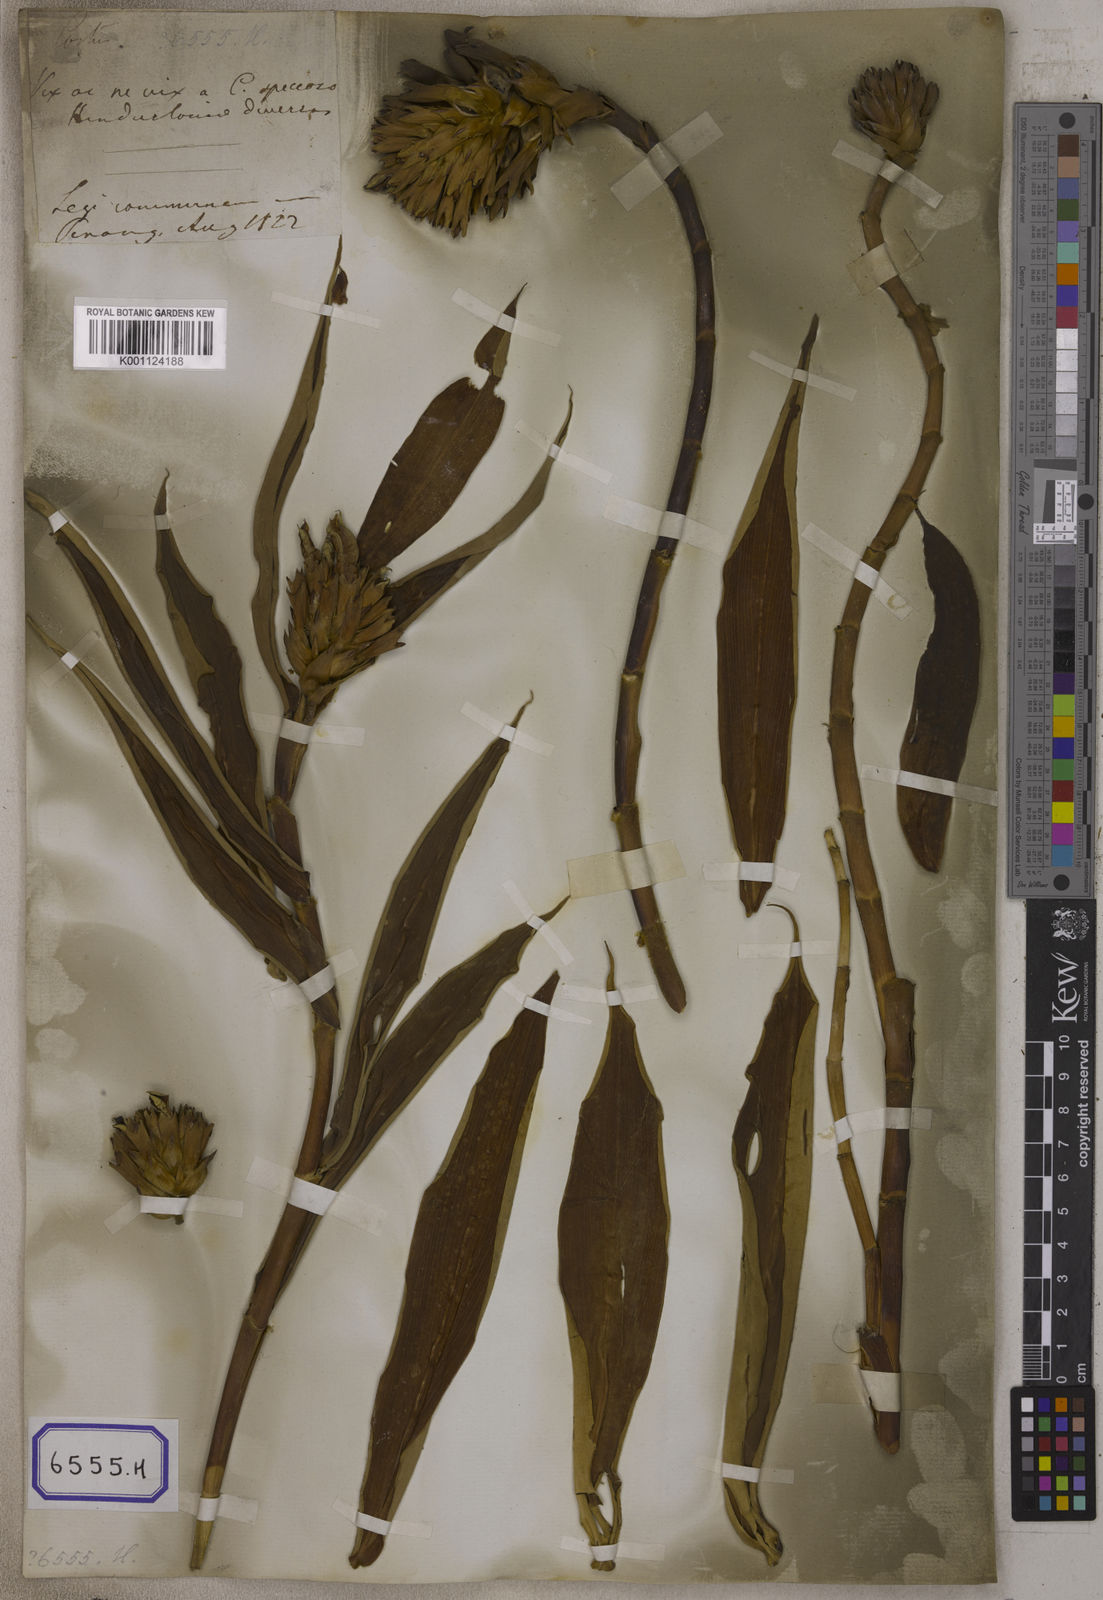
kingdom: Plantae
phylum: Tracheophyta
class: Liliopsida
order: Zingiberales
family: Costaceae
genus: Hellenia
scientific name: Hellenia speciosa
